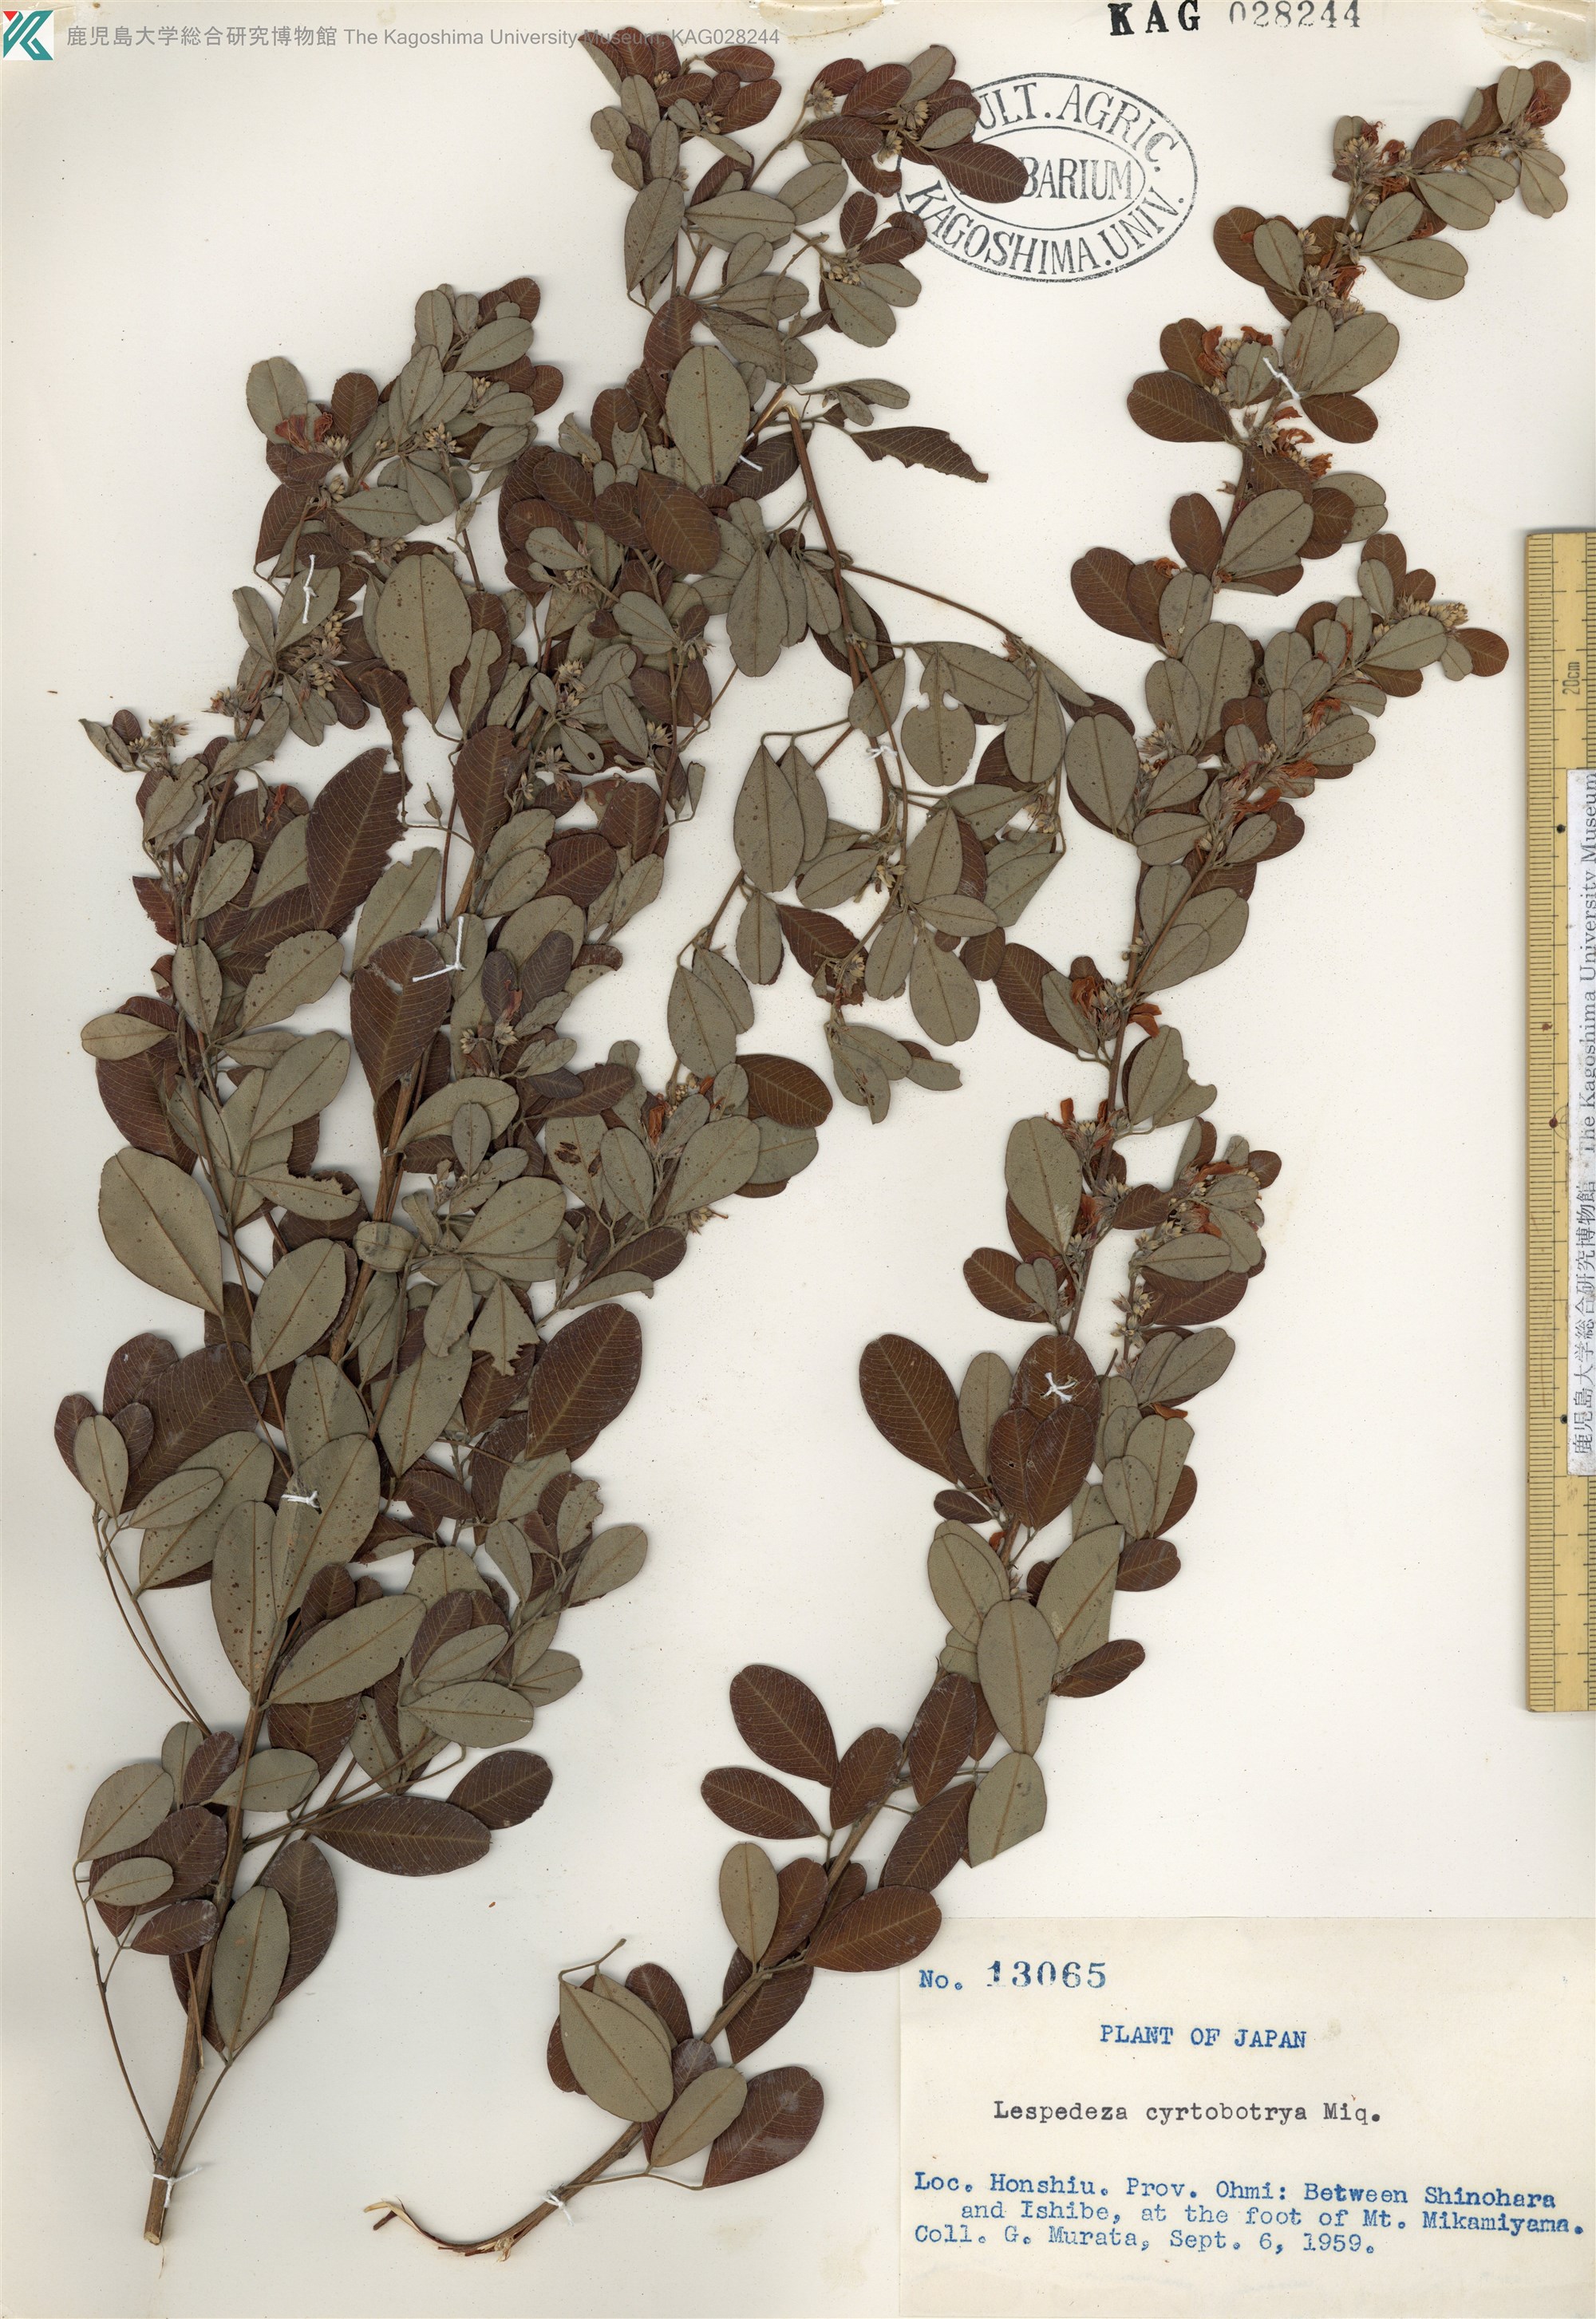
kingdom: Plantae
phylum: Tracheophyta
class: Magnoliopsida
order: Fabales
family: Fabaceae
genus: Lespedeza
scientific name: Lespedeza cyrtobotrya
